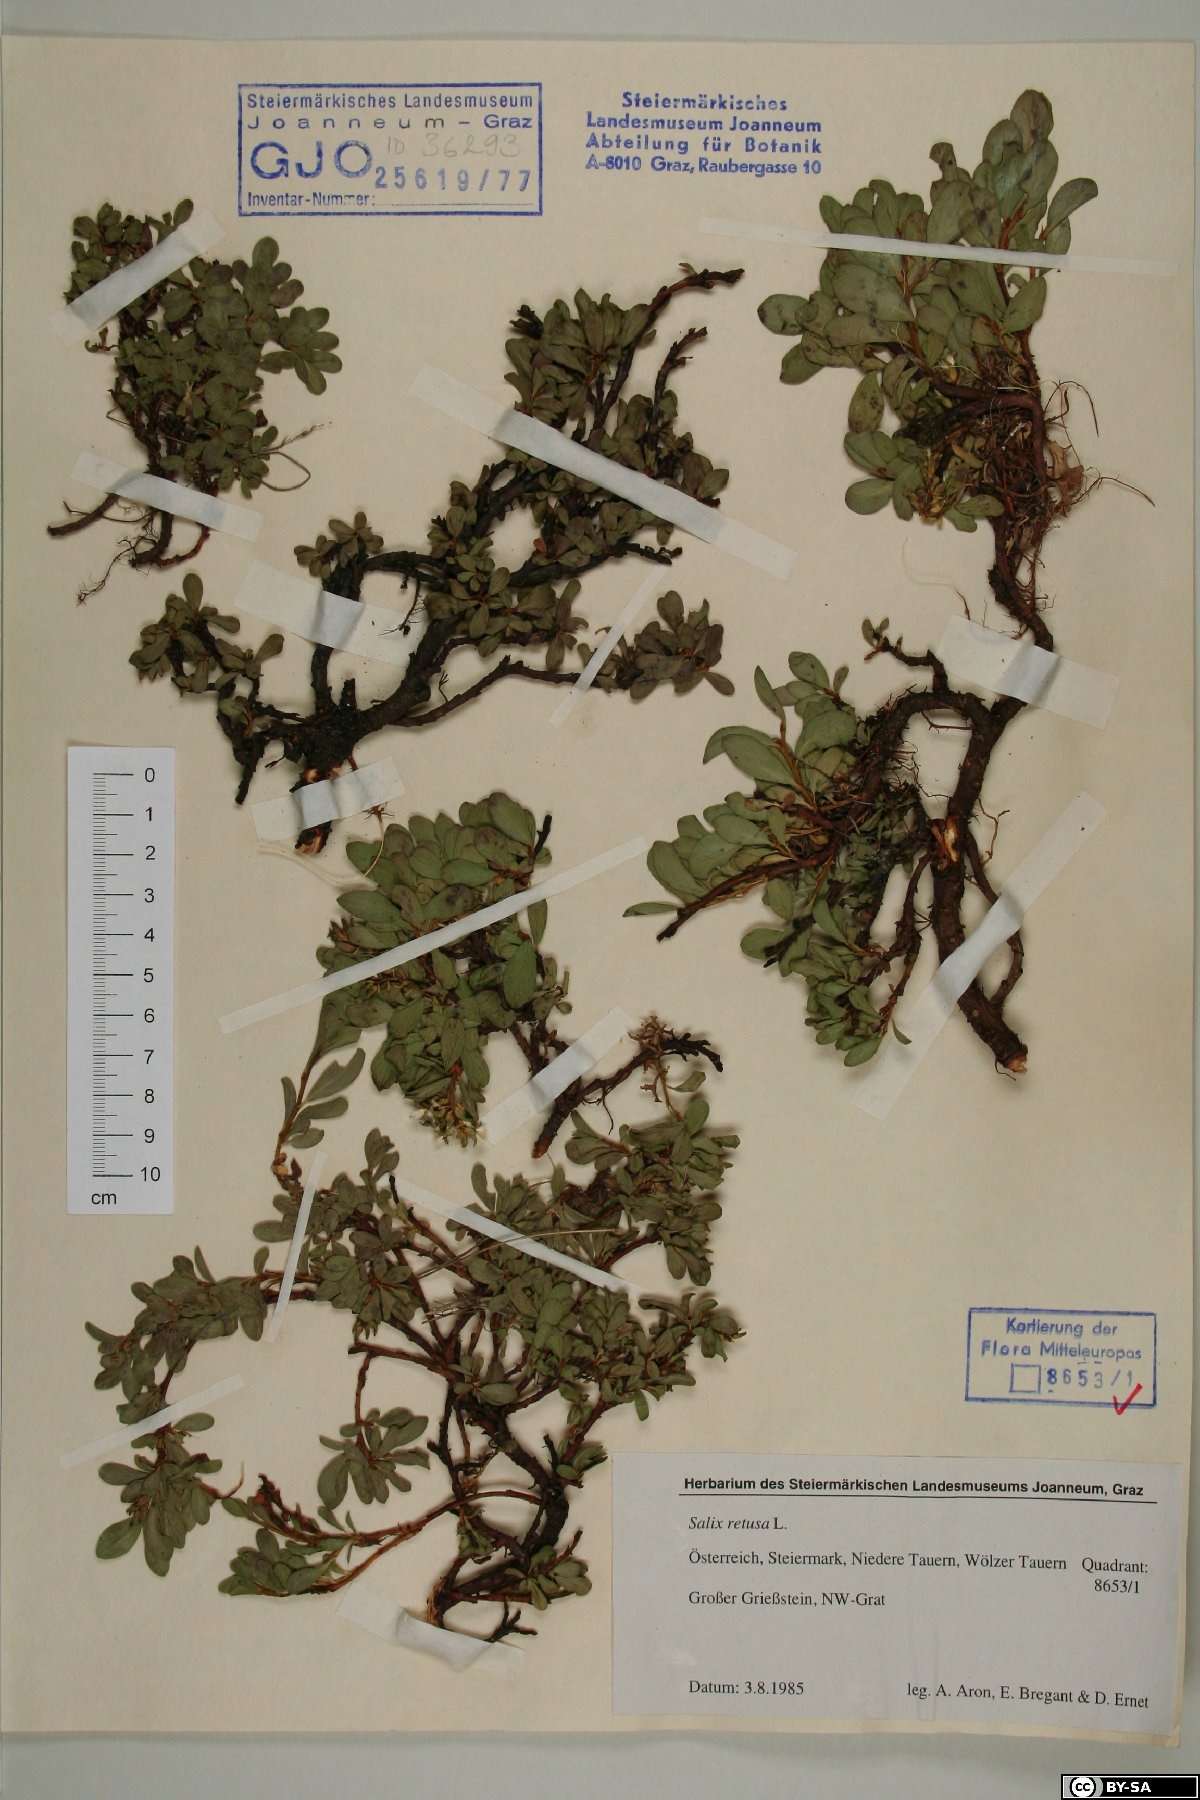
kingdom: Plantae
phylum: Tracheophyta
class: Magnoliopsida
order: Malpighiales
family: Salicaceae
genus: Salix
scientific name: Salix retusa
